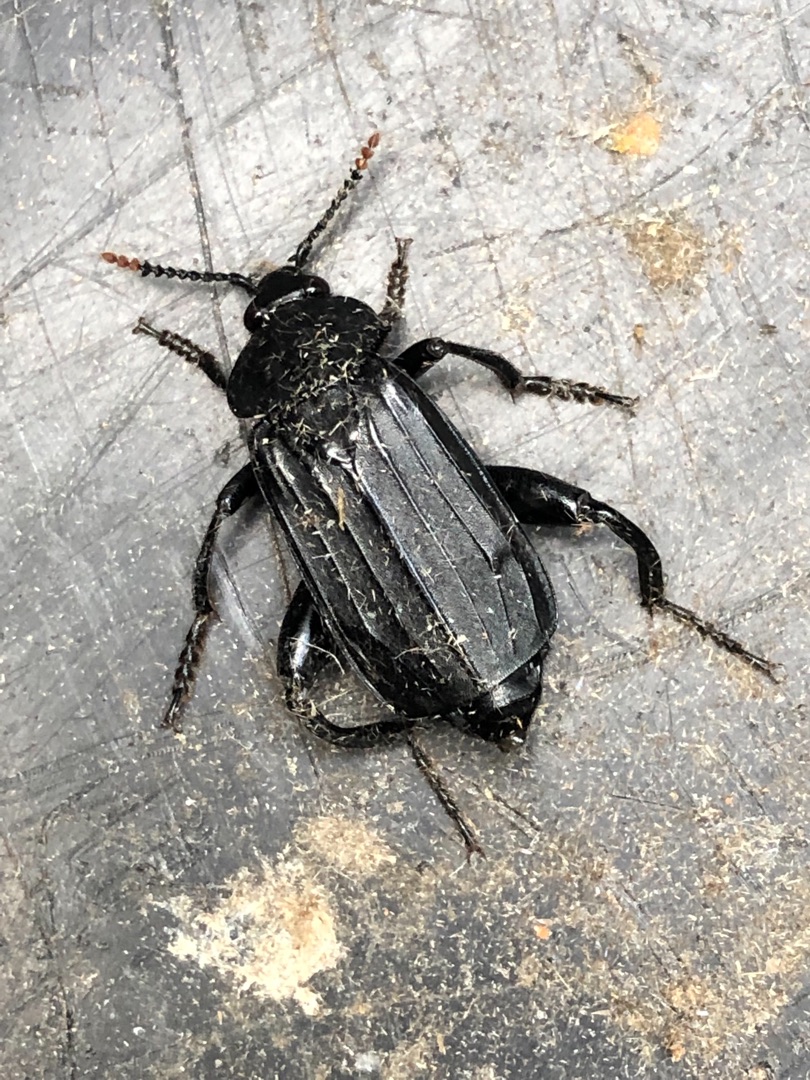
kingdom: Animalia
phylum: Arthropoda
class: Insecta
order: Coleoptera
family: Staphylinidae
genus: Necrodes
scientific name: Necrodes littoralis
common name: Ligrøver
